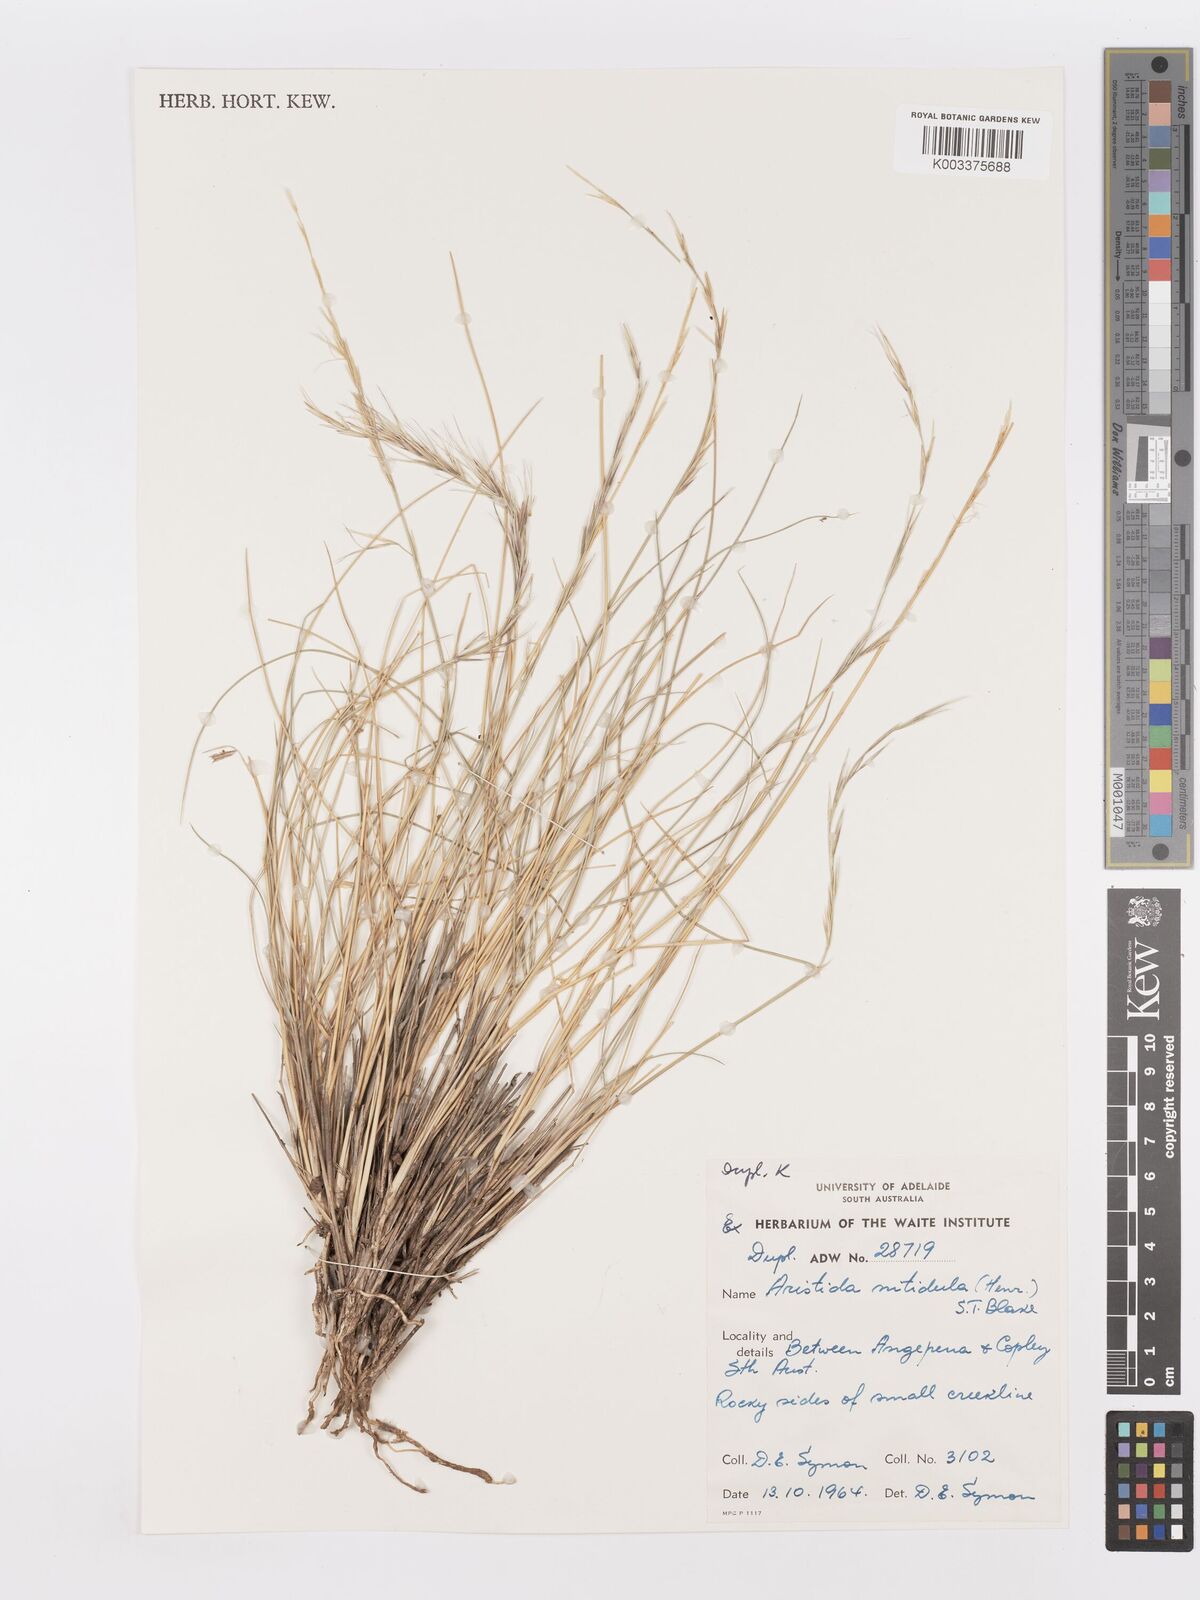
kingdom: Plantae
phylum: Tracheophyta
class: Liliopsida
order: Poales
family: Poaceae
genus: Aristida
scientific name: Aristida nitidula
